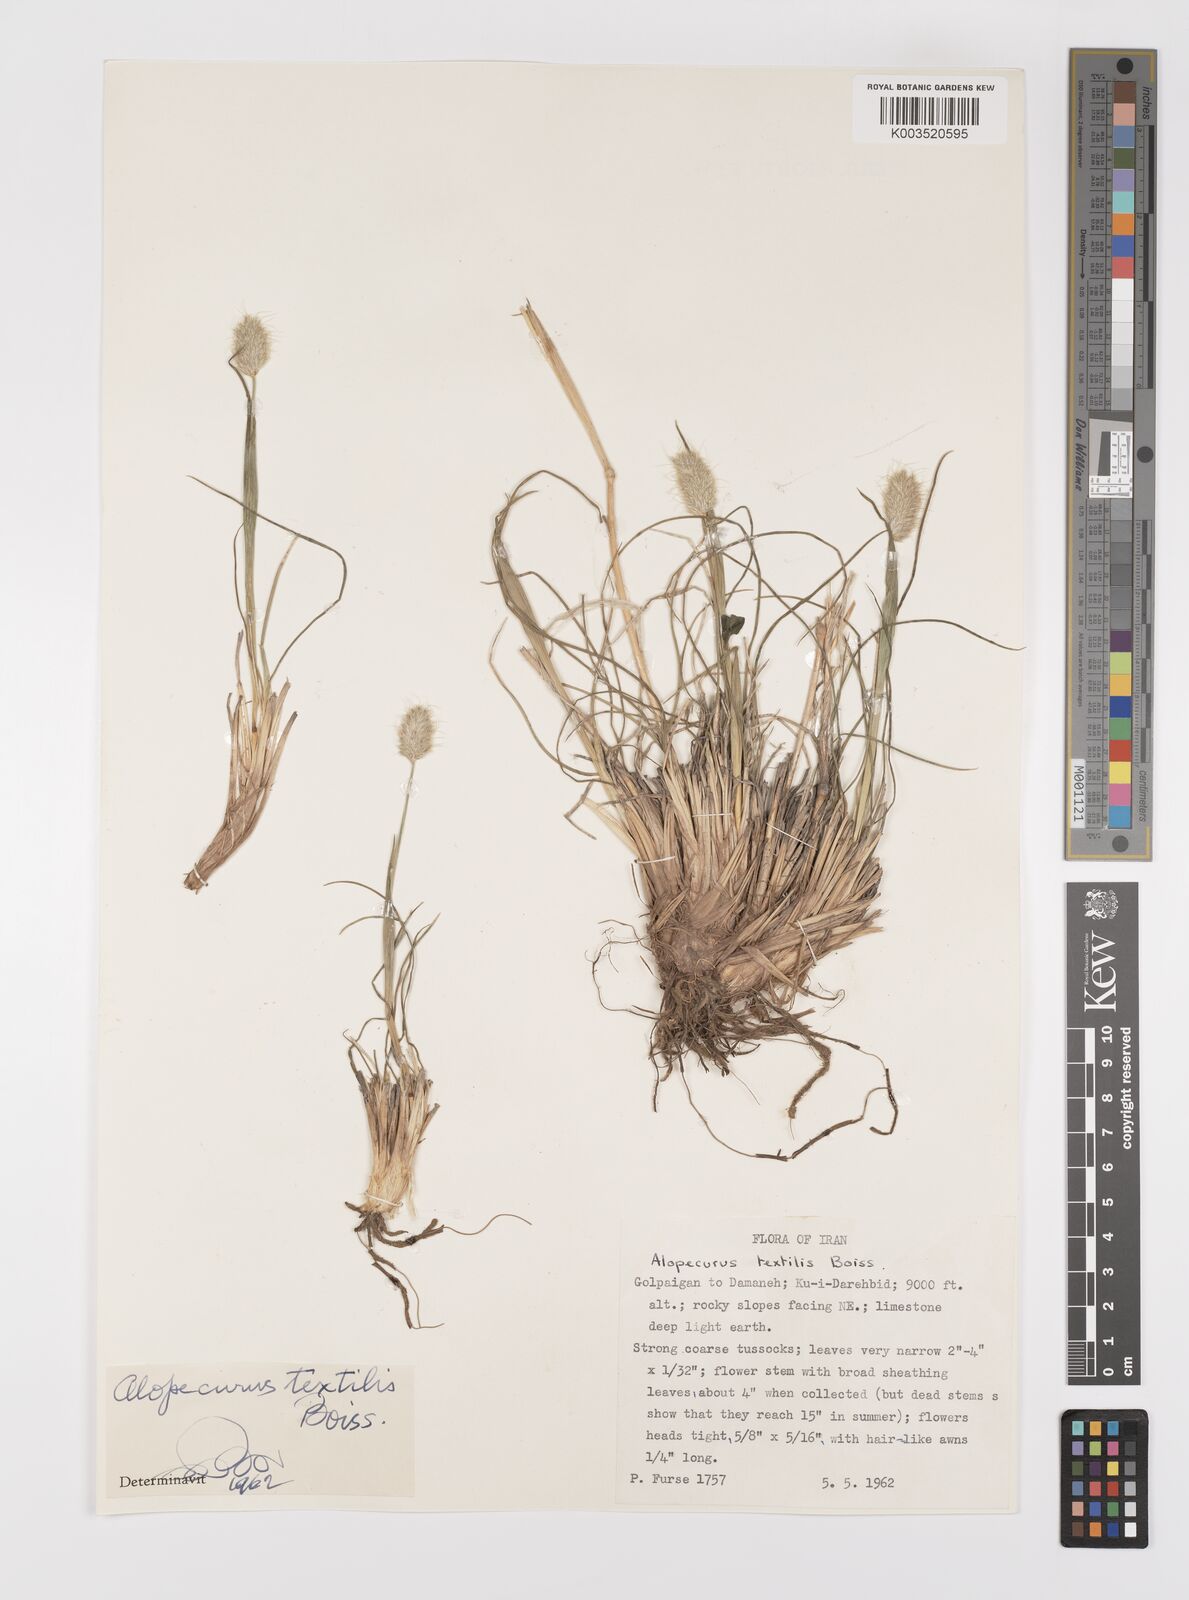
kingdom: Plantae
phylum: Tracheophyta
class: Liliopsida
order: Poales
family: Poaceae
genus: Alopecurus
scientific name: Alopecurus textilis
